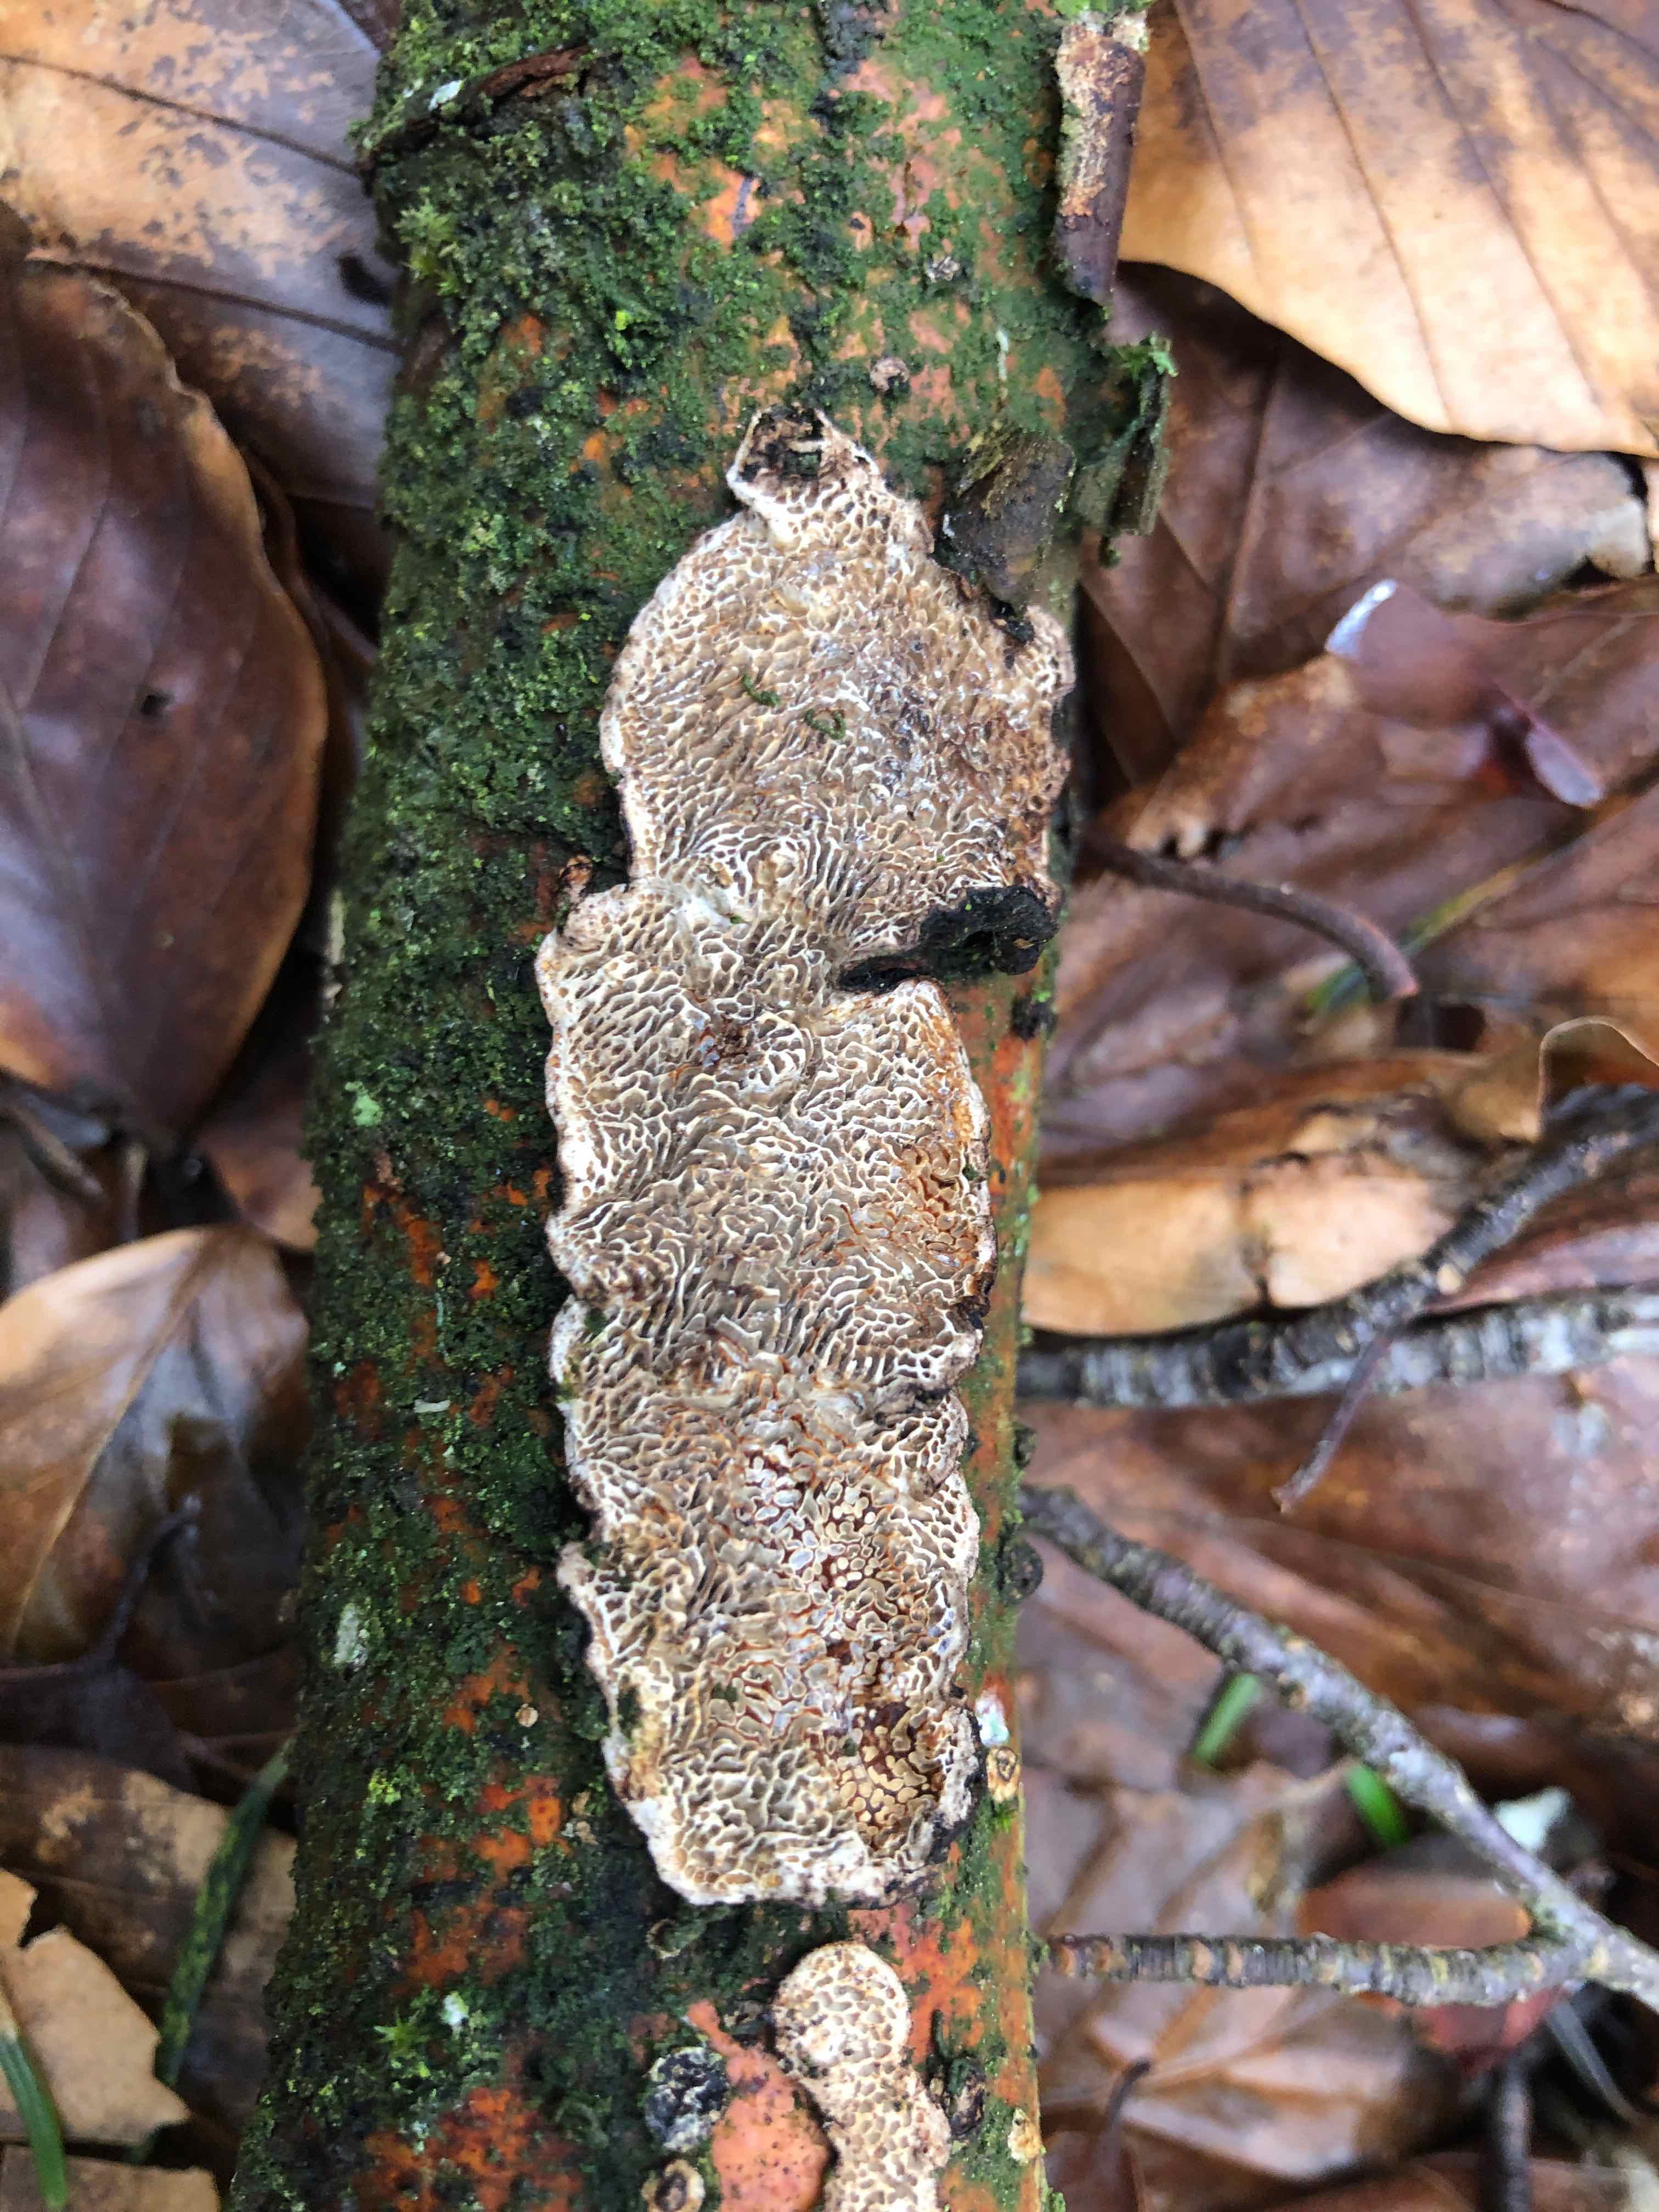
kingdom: Fungi
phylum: Basidiomycota
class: Agaricomycetes
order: Polyporales
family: Polyporaceae
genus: Podofomes
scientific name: Podofomes mollis
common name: blød begporesvamp
